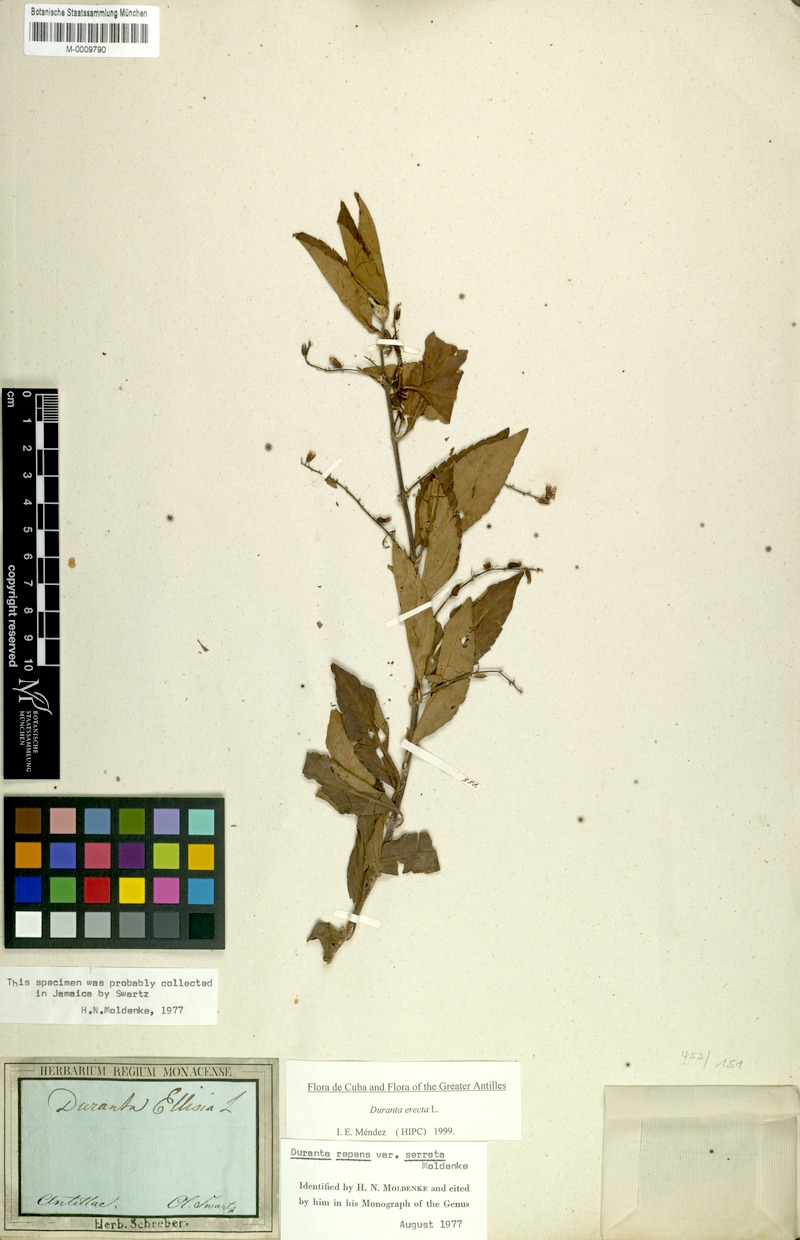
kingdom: Plantae
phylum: Tracheophyta
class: Magnoliopsida
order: Lamiales
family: Verbenaceae
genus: Duranta
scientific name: Duranta erecta
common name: Golden dewdrops
